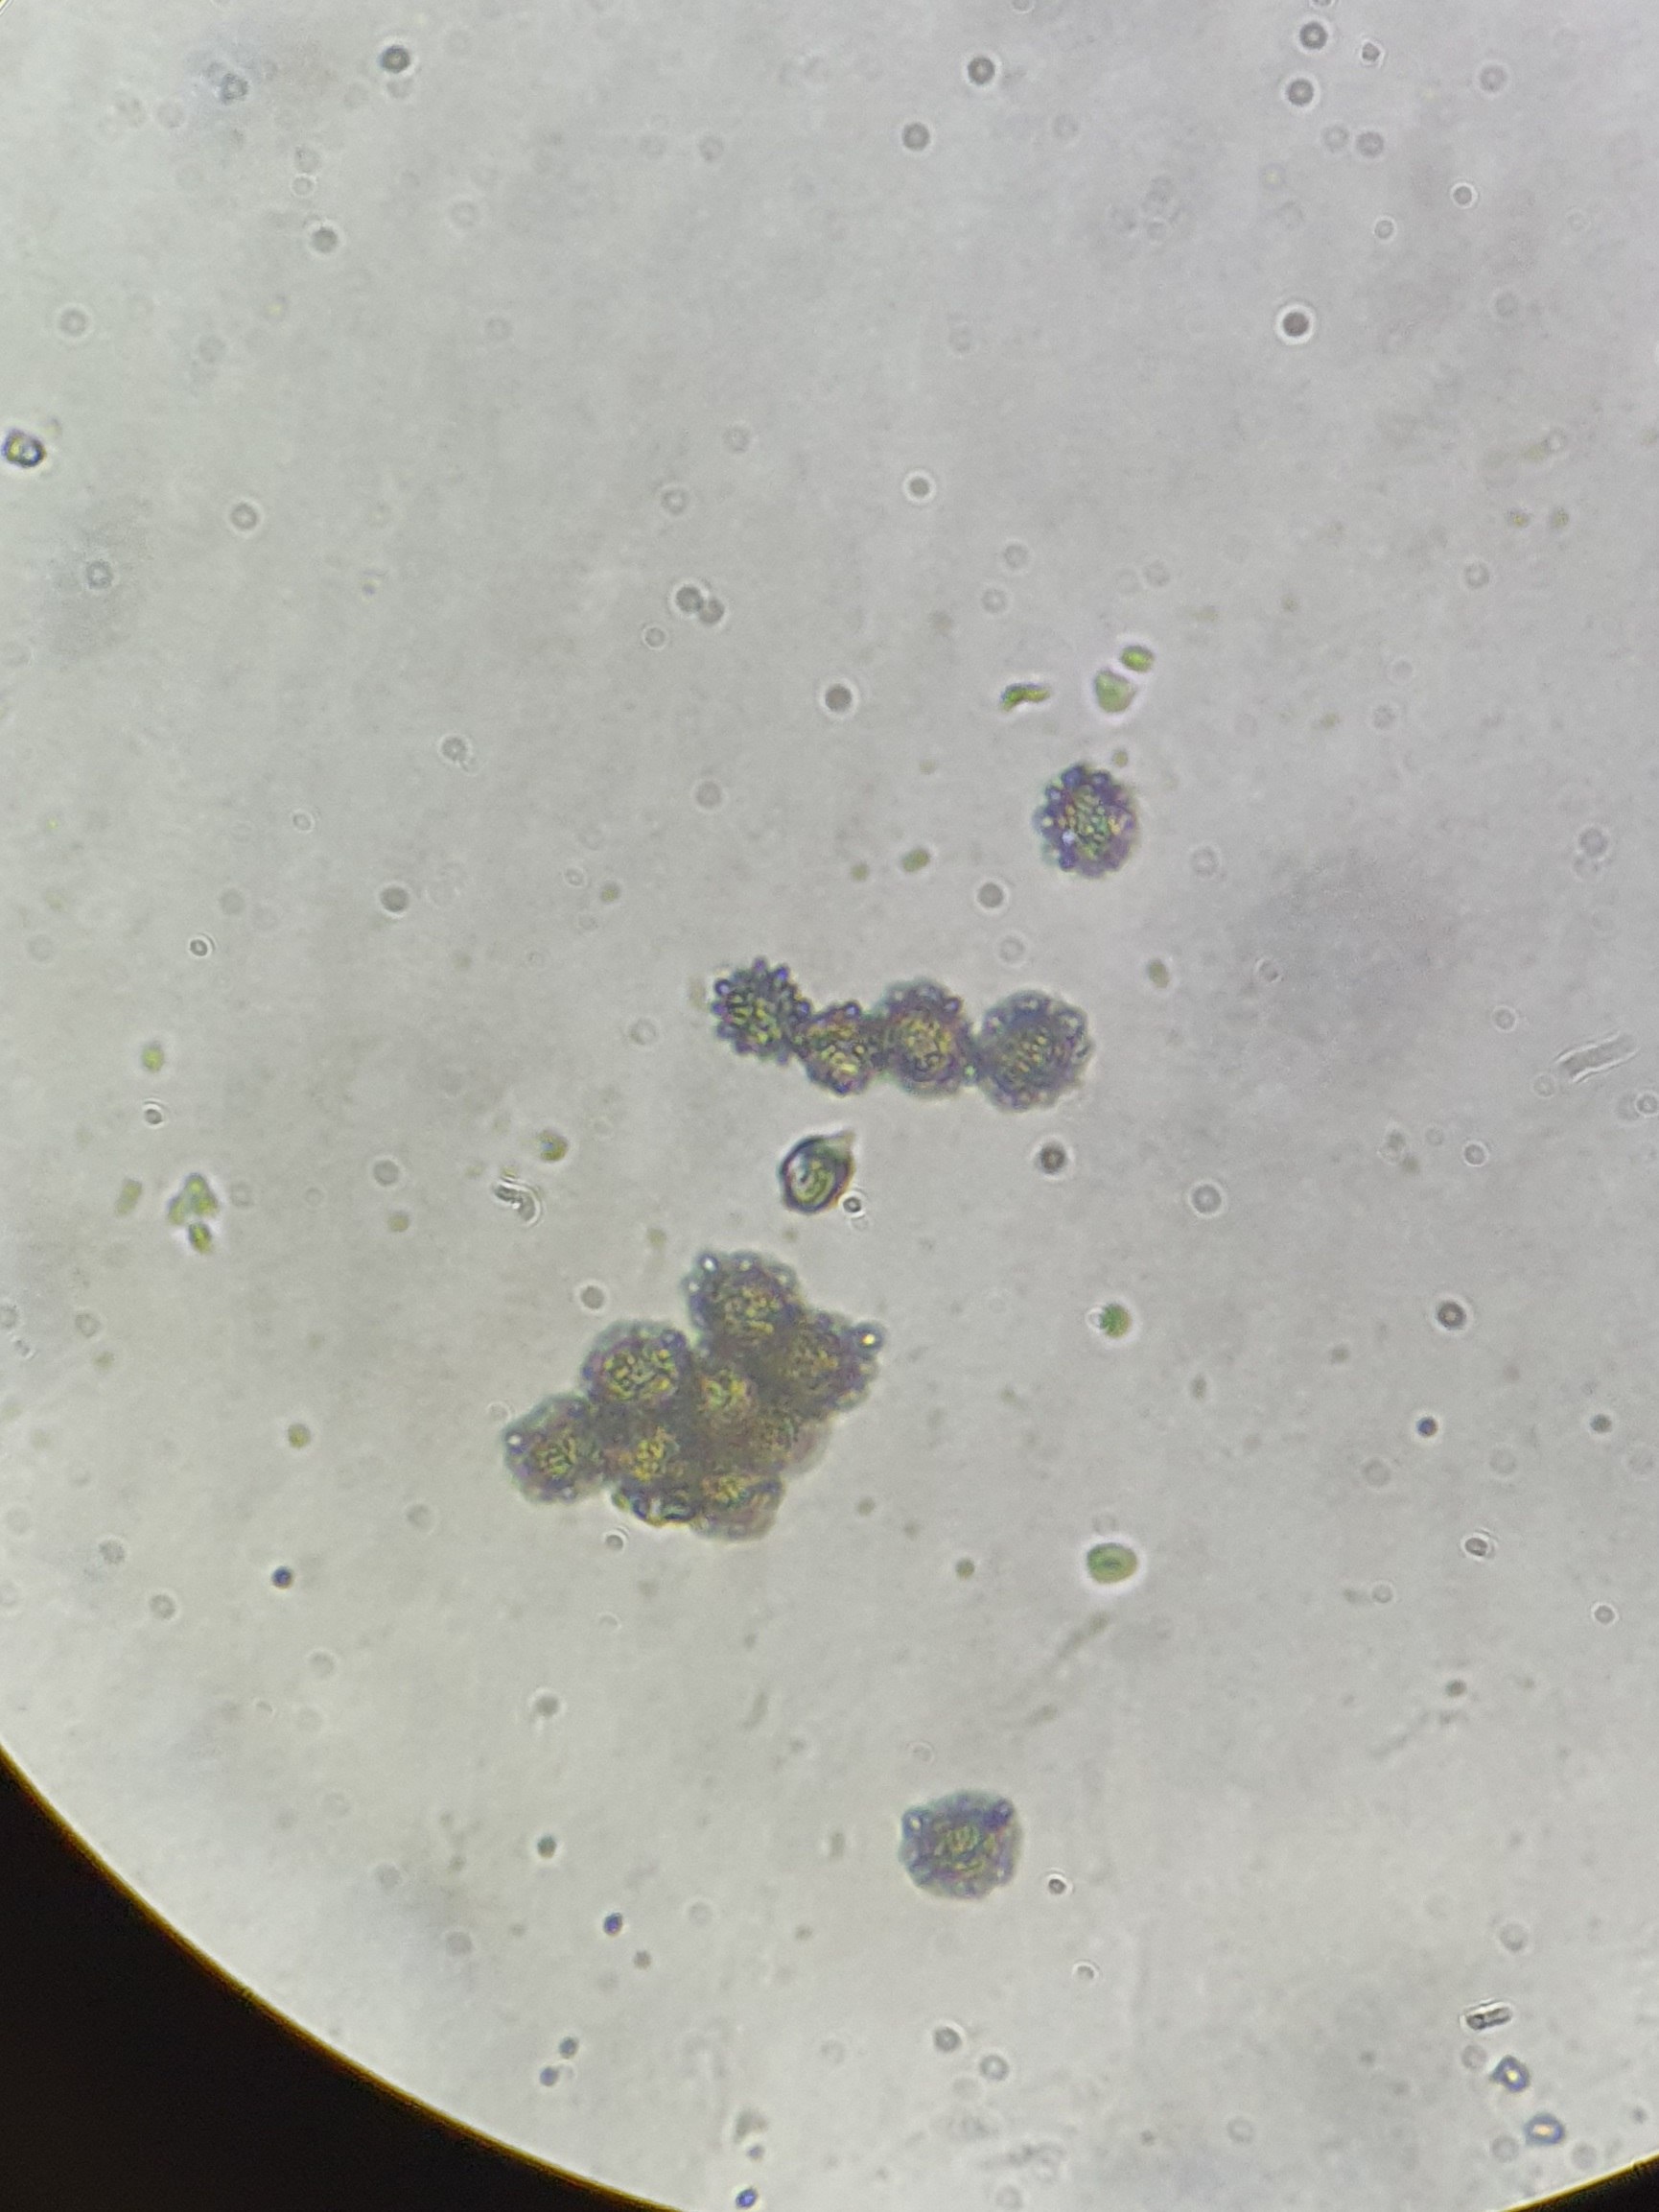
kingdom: Fungi
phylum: Basidiomycota
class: Agaricomycetes
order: Russulales
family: Russulaceae
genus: Russula
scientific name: Russula cessans
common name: fyrre-skørhat
